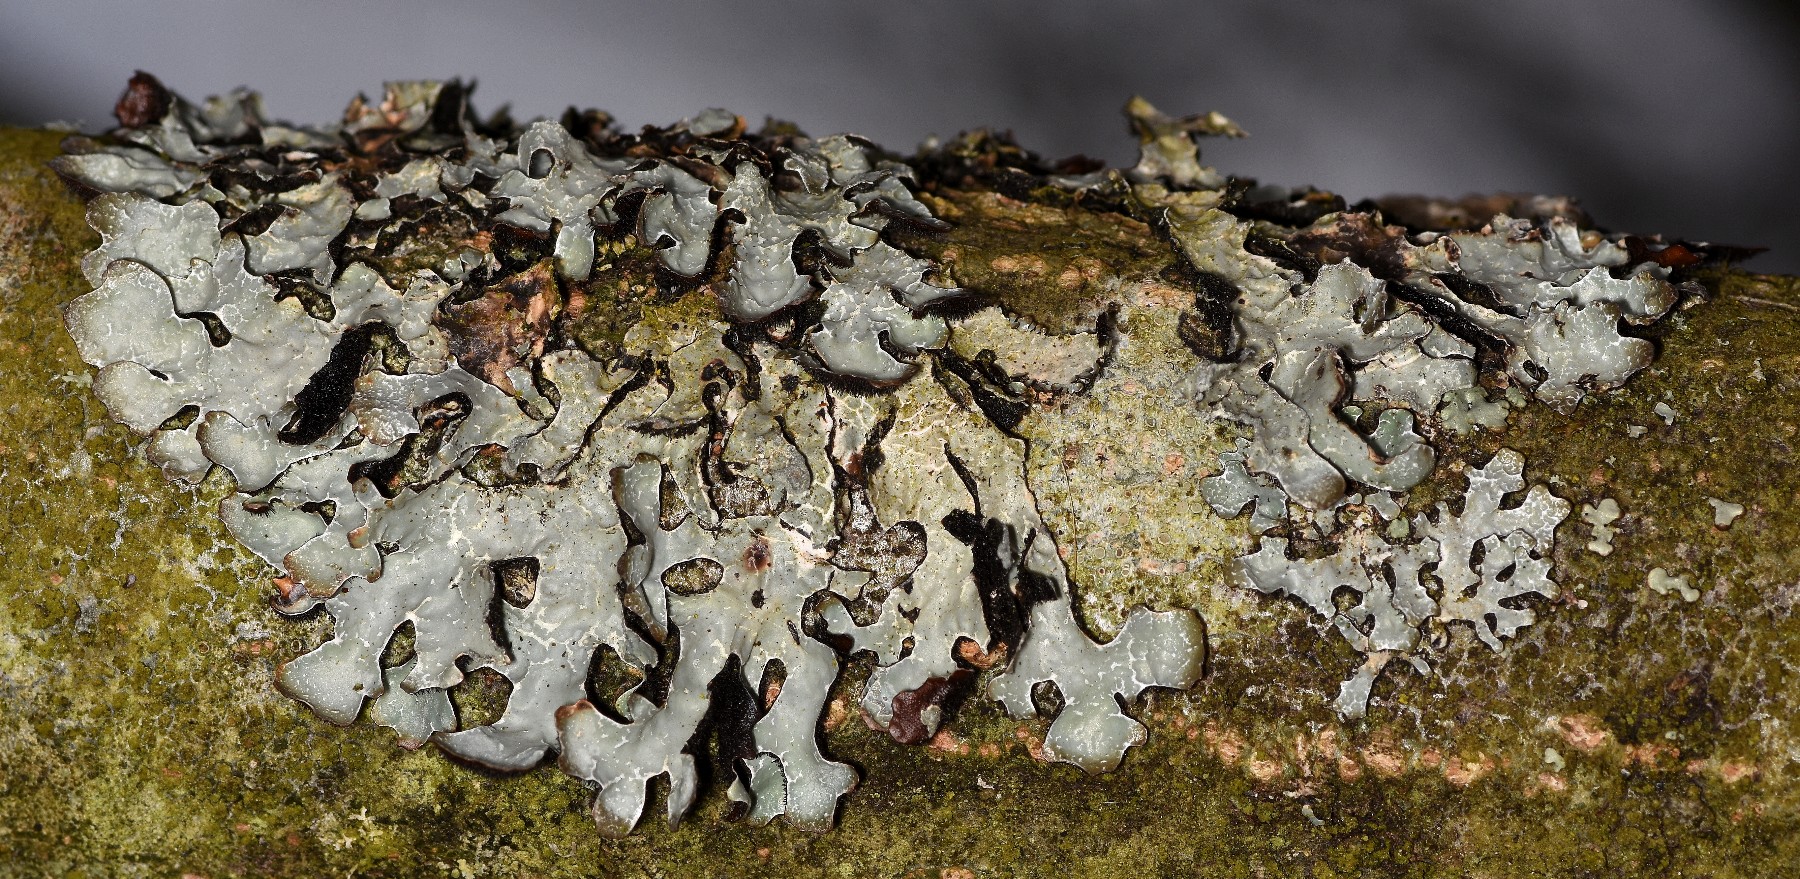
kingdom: Fungi
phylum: Ascomycota
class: Lecanoromycetes
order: Lecanorales
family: Parmeliaceae
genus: Parmelia
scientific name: Parmelia sulcata
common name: rynket skållav
